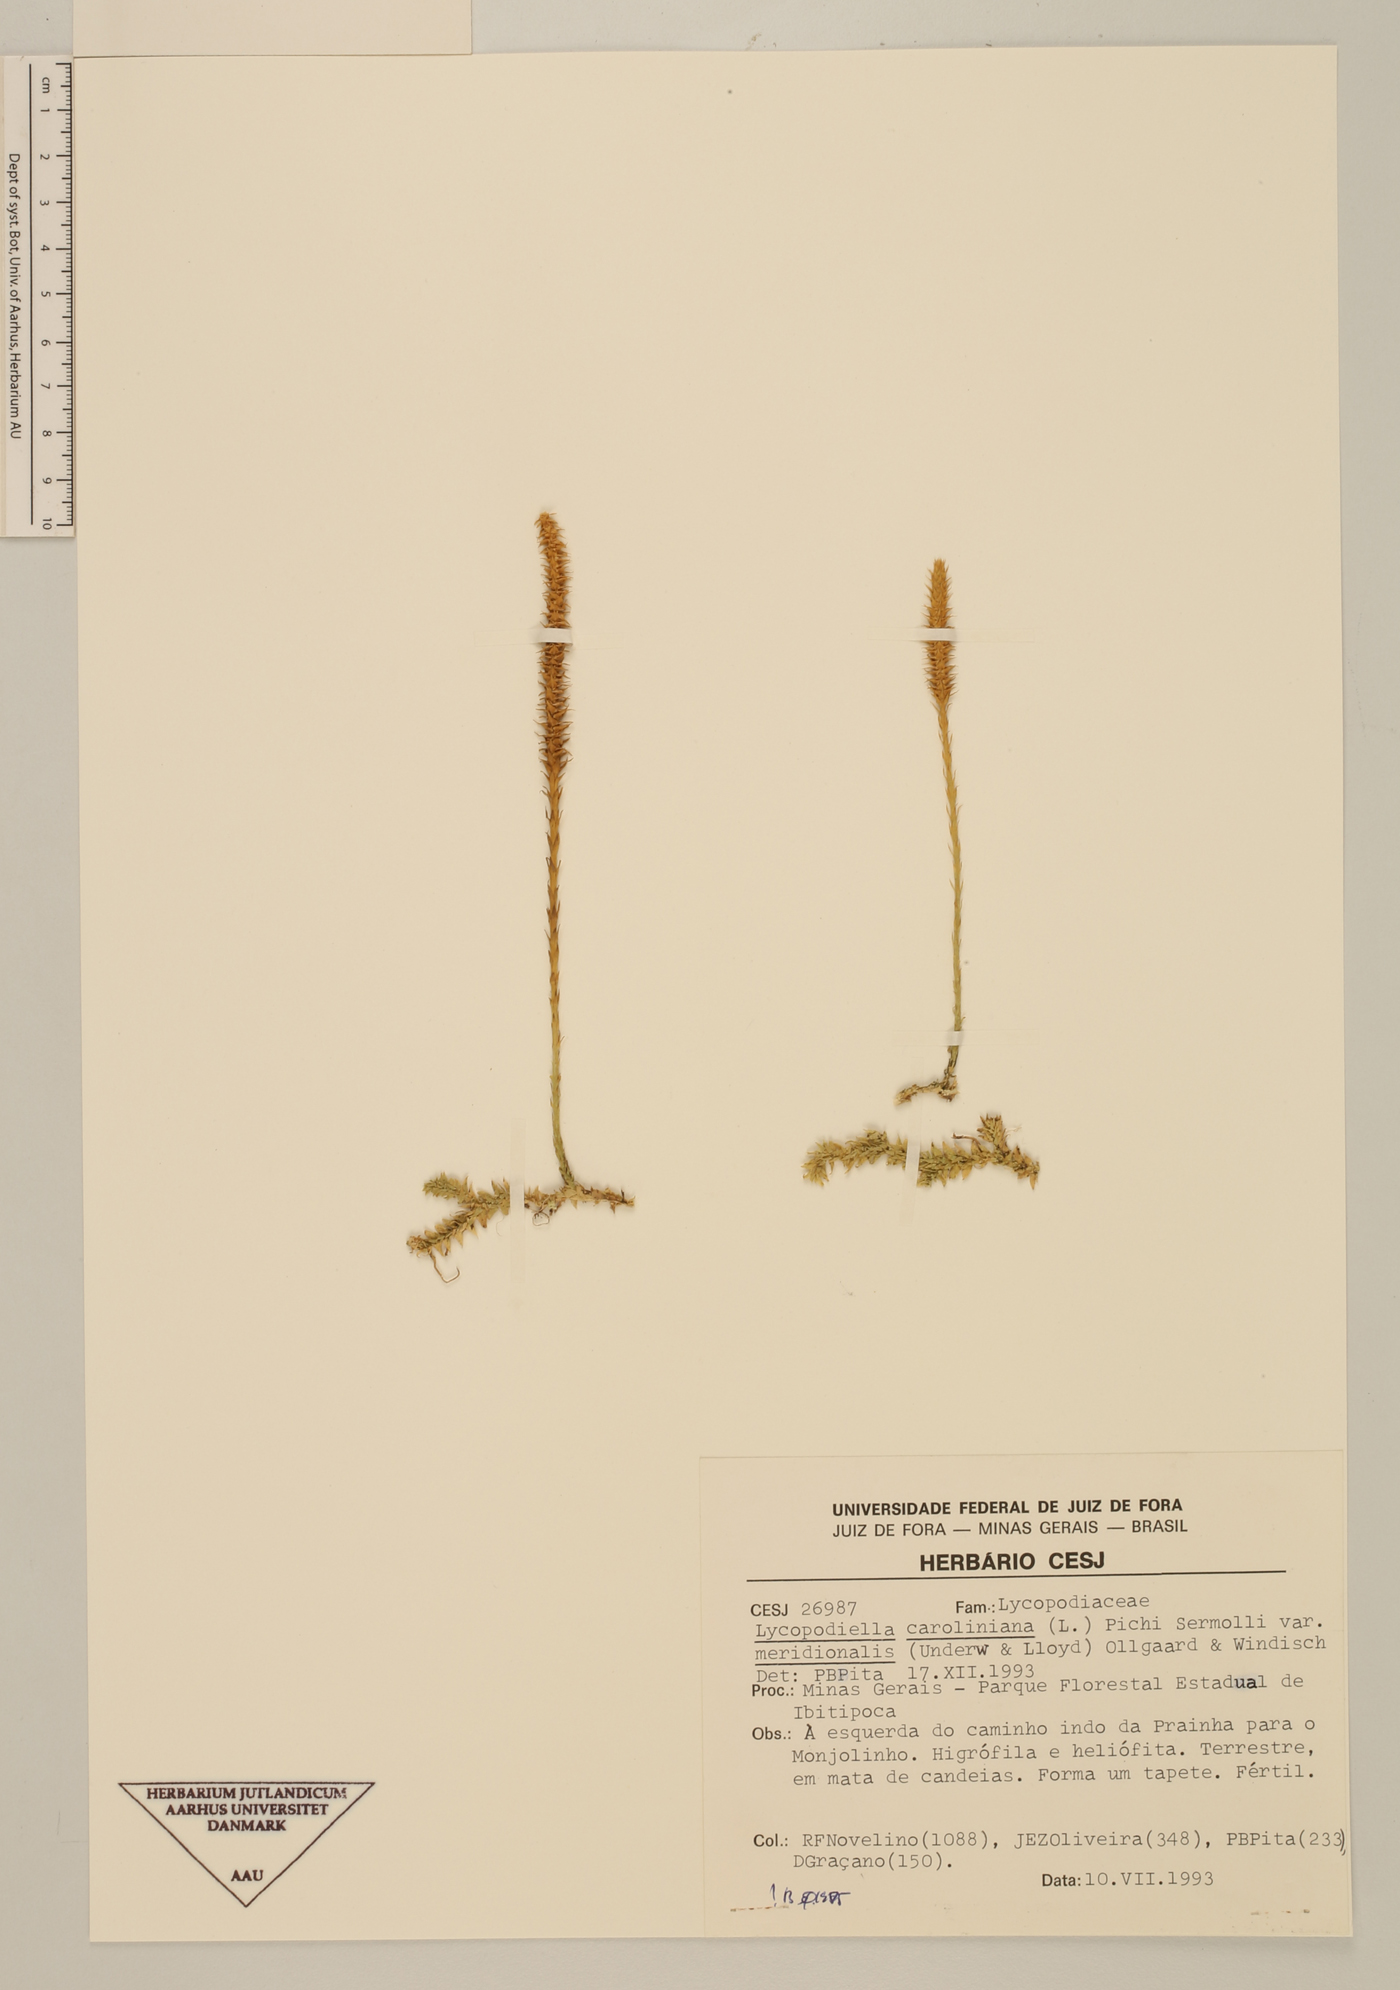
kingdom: Plantae
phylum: Tracheophyta
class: Lycopodiopsida
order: Lycopodiales
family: Lycopodiaceae
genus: Pseudolycopodiella
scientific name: Pseudolycopodiella meridionalis
